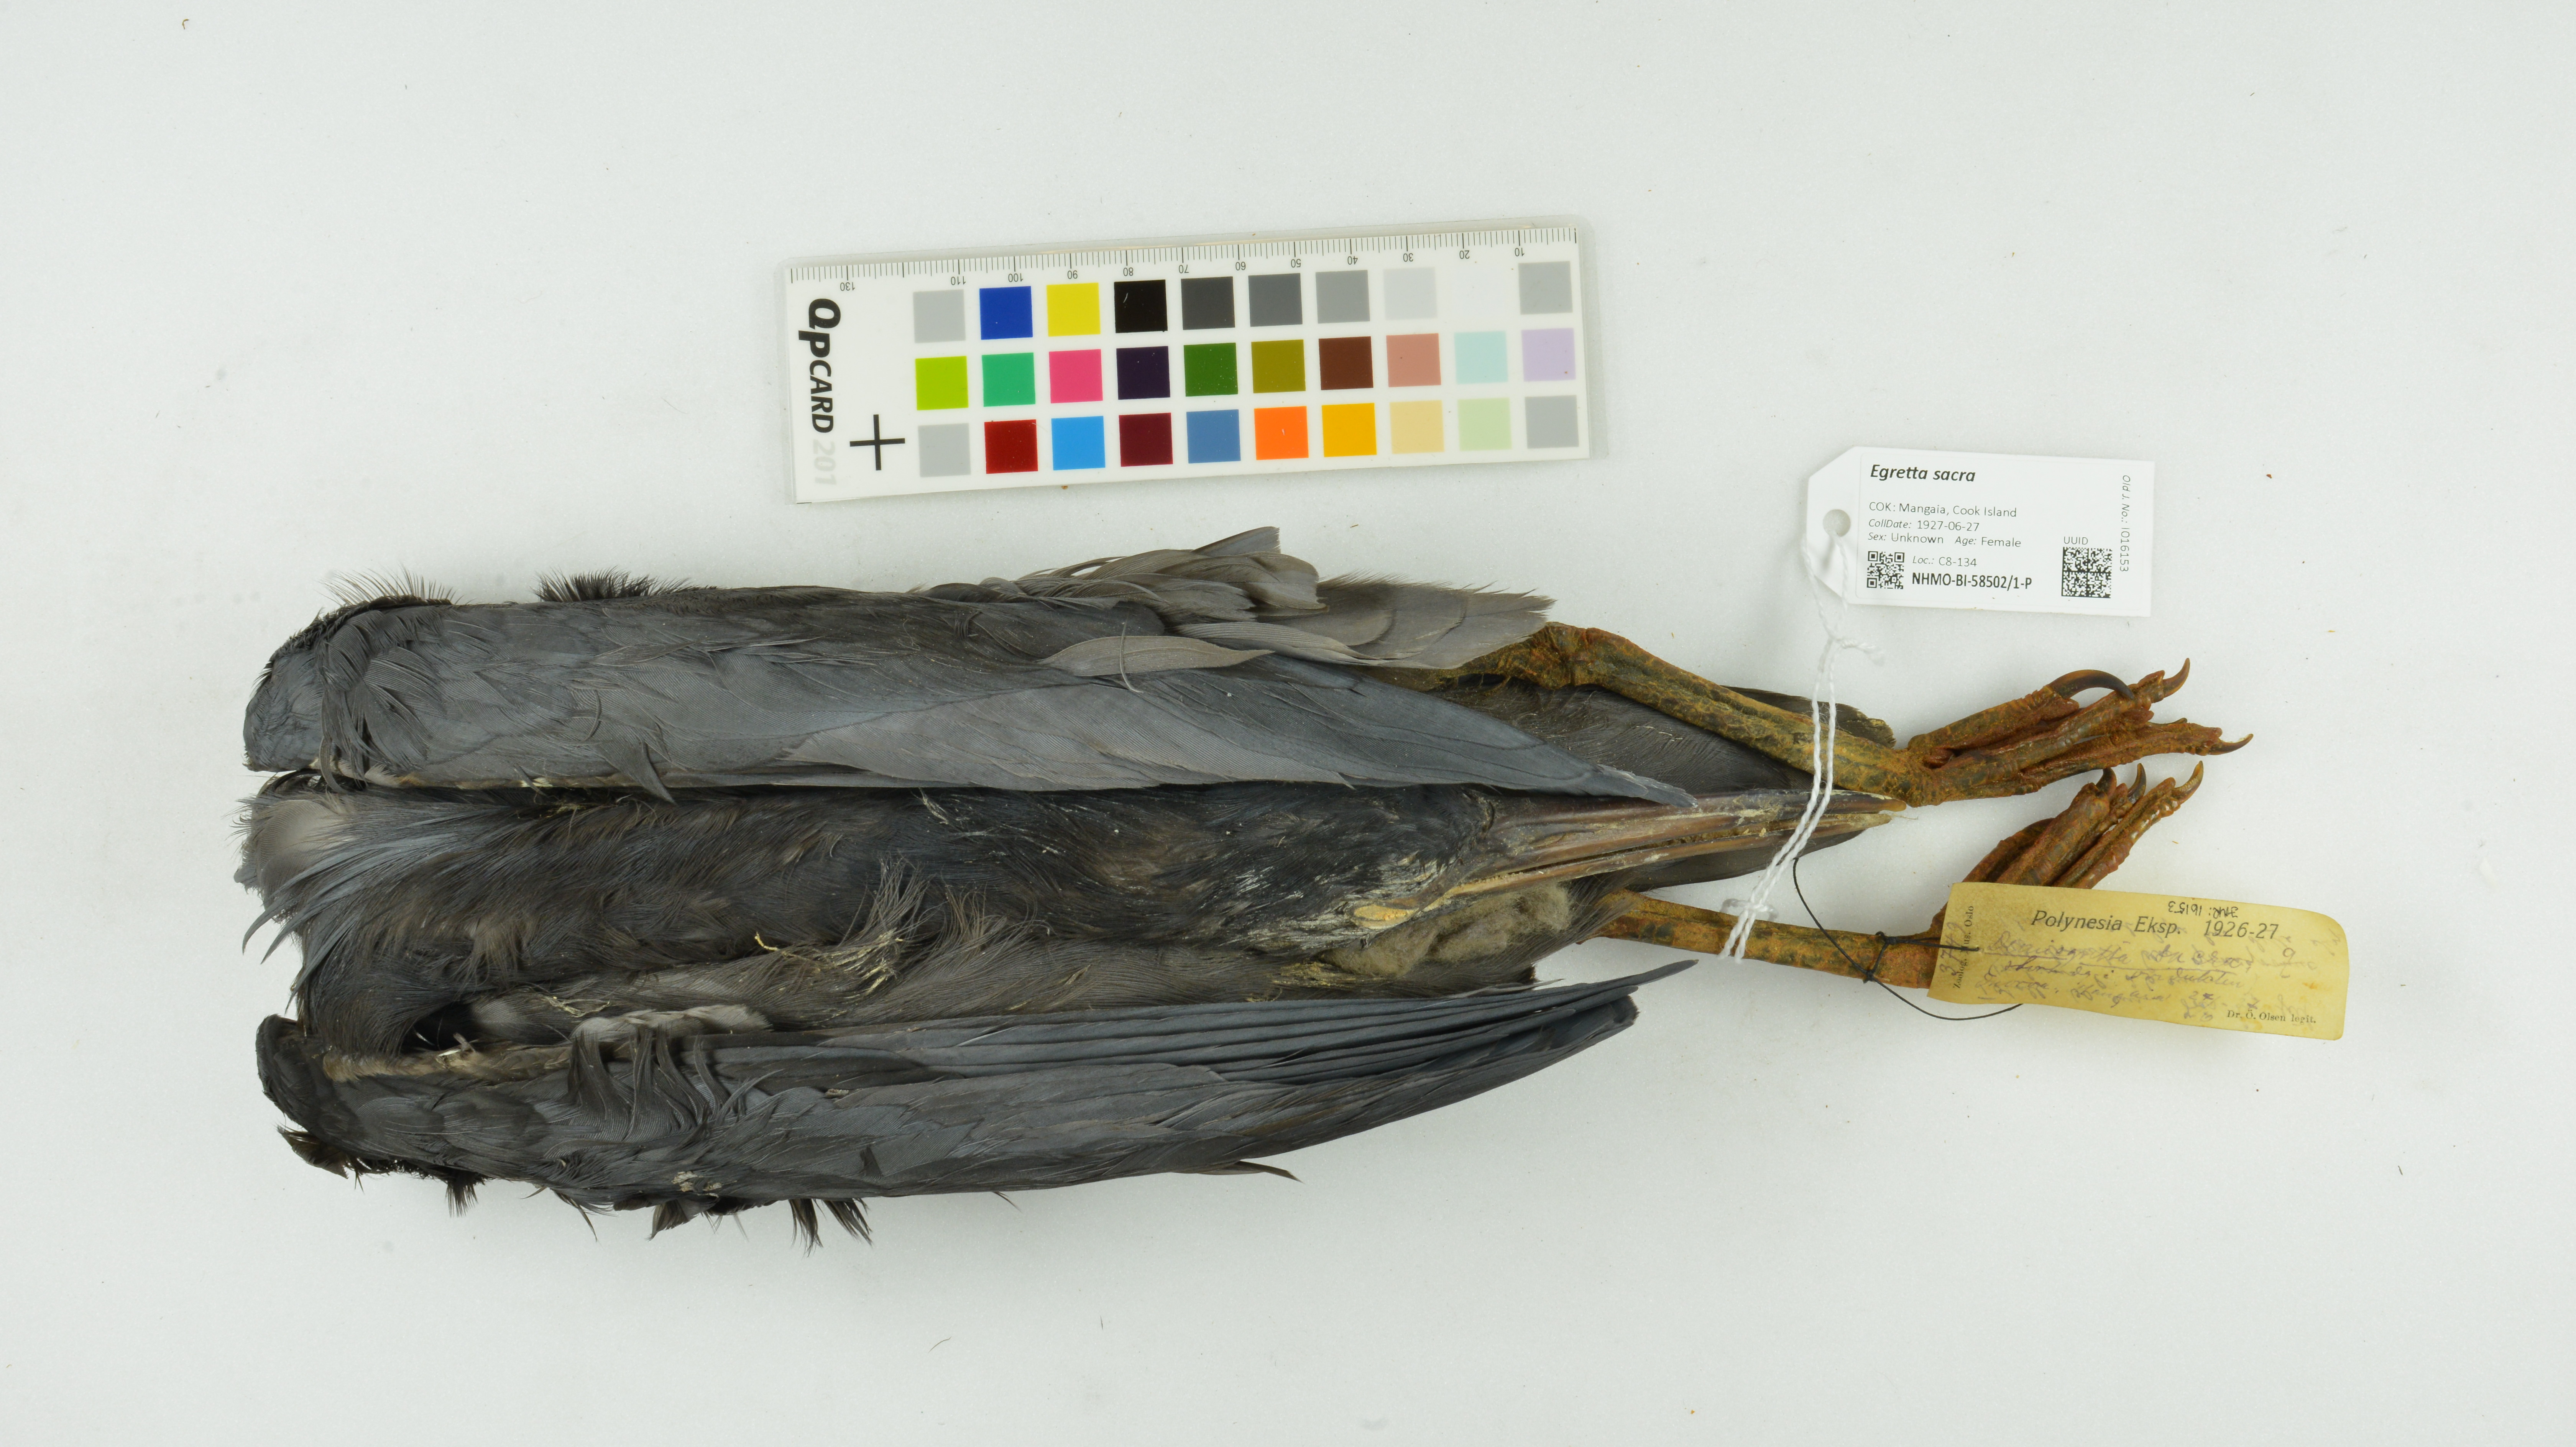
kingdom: Animalia
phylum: Chordata
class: Aves
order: Pelecaniformes
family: Ardeidae
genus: Egretta
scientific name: Egretta sacra
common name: Pacific reef heron
